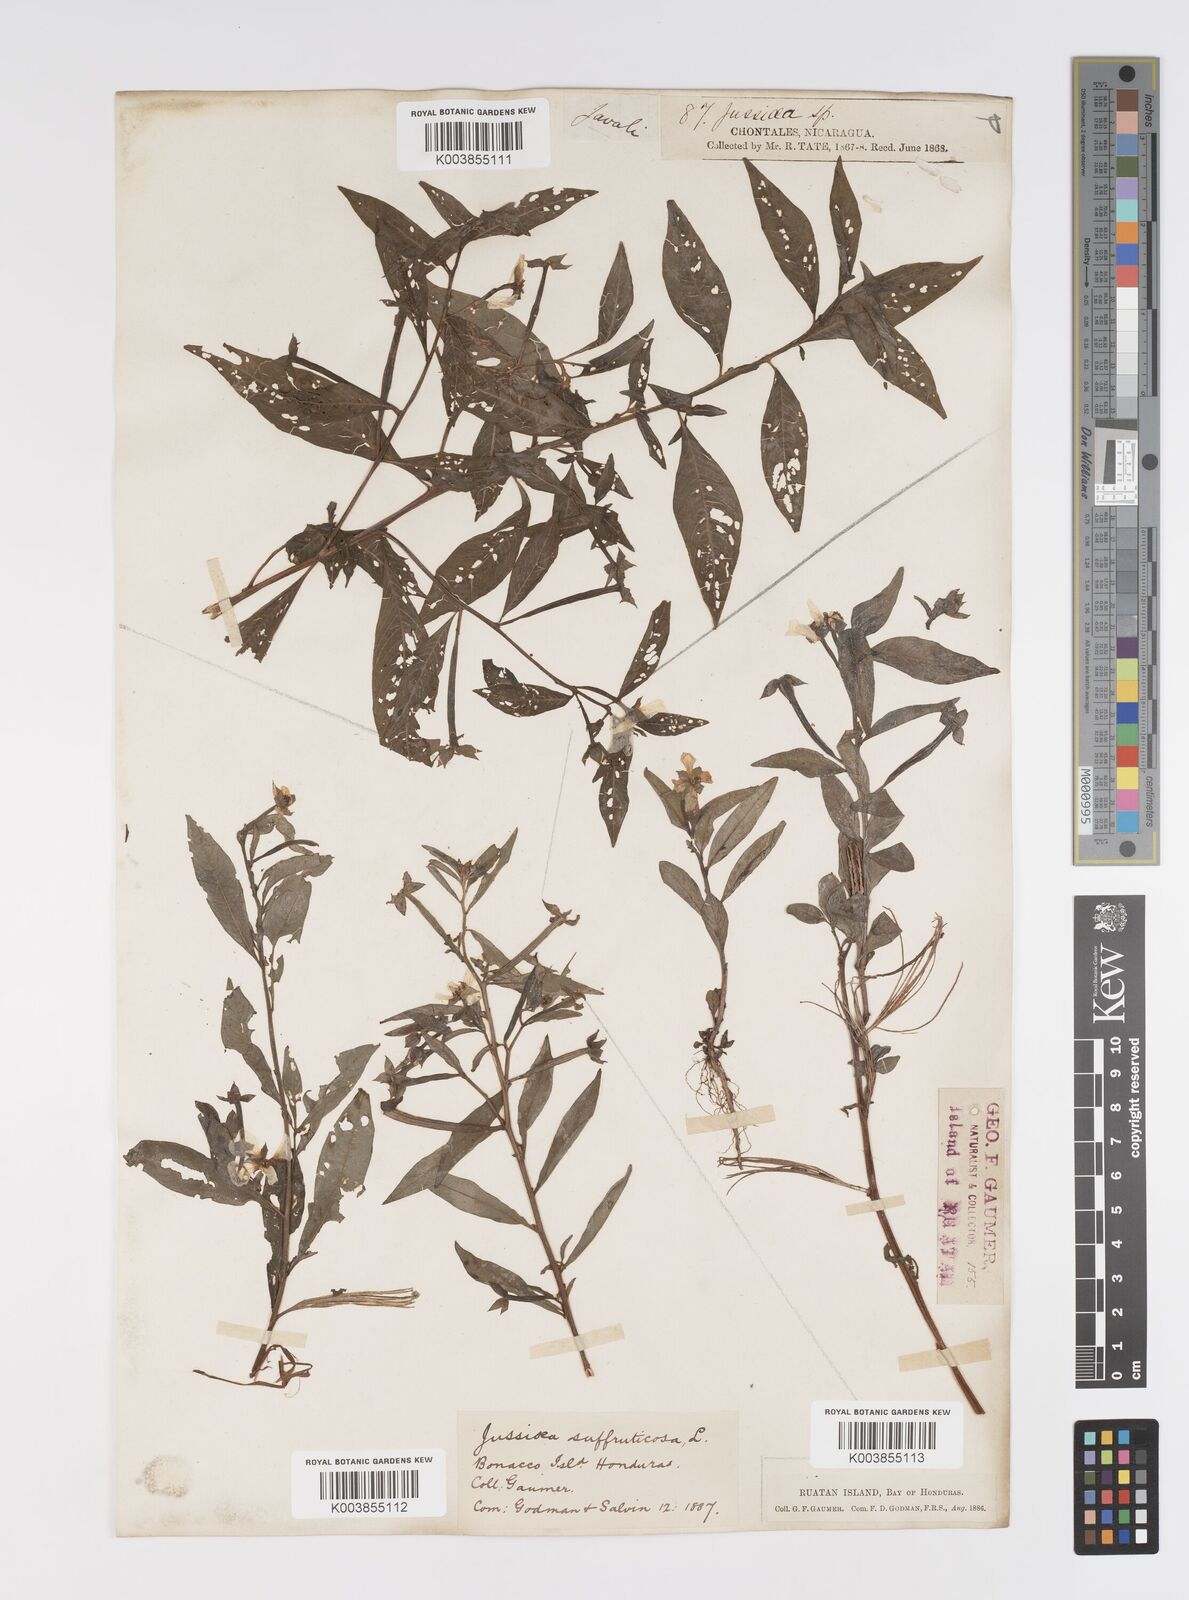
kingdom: Plantae
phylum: Tracheophyta
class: Magnoliopsida
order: Myrtales
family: Onagraceae
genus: Ludwigia
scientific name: Ludwigia octovalvis
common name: Water-primrose
